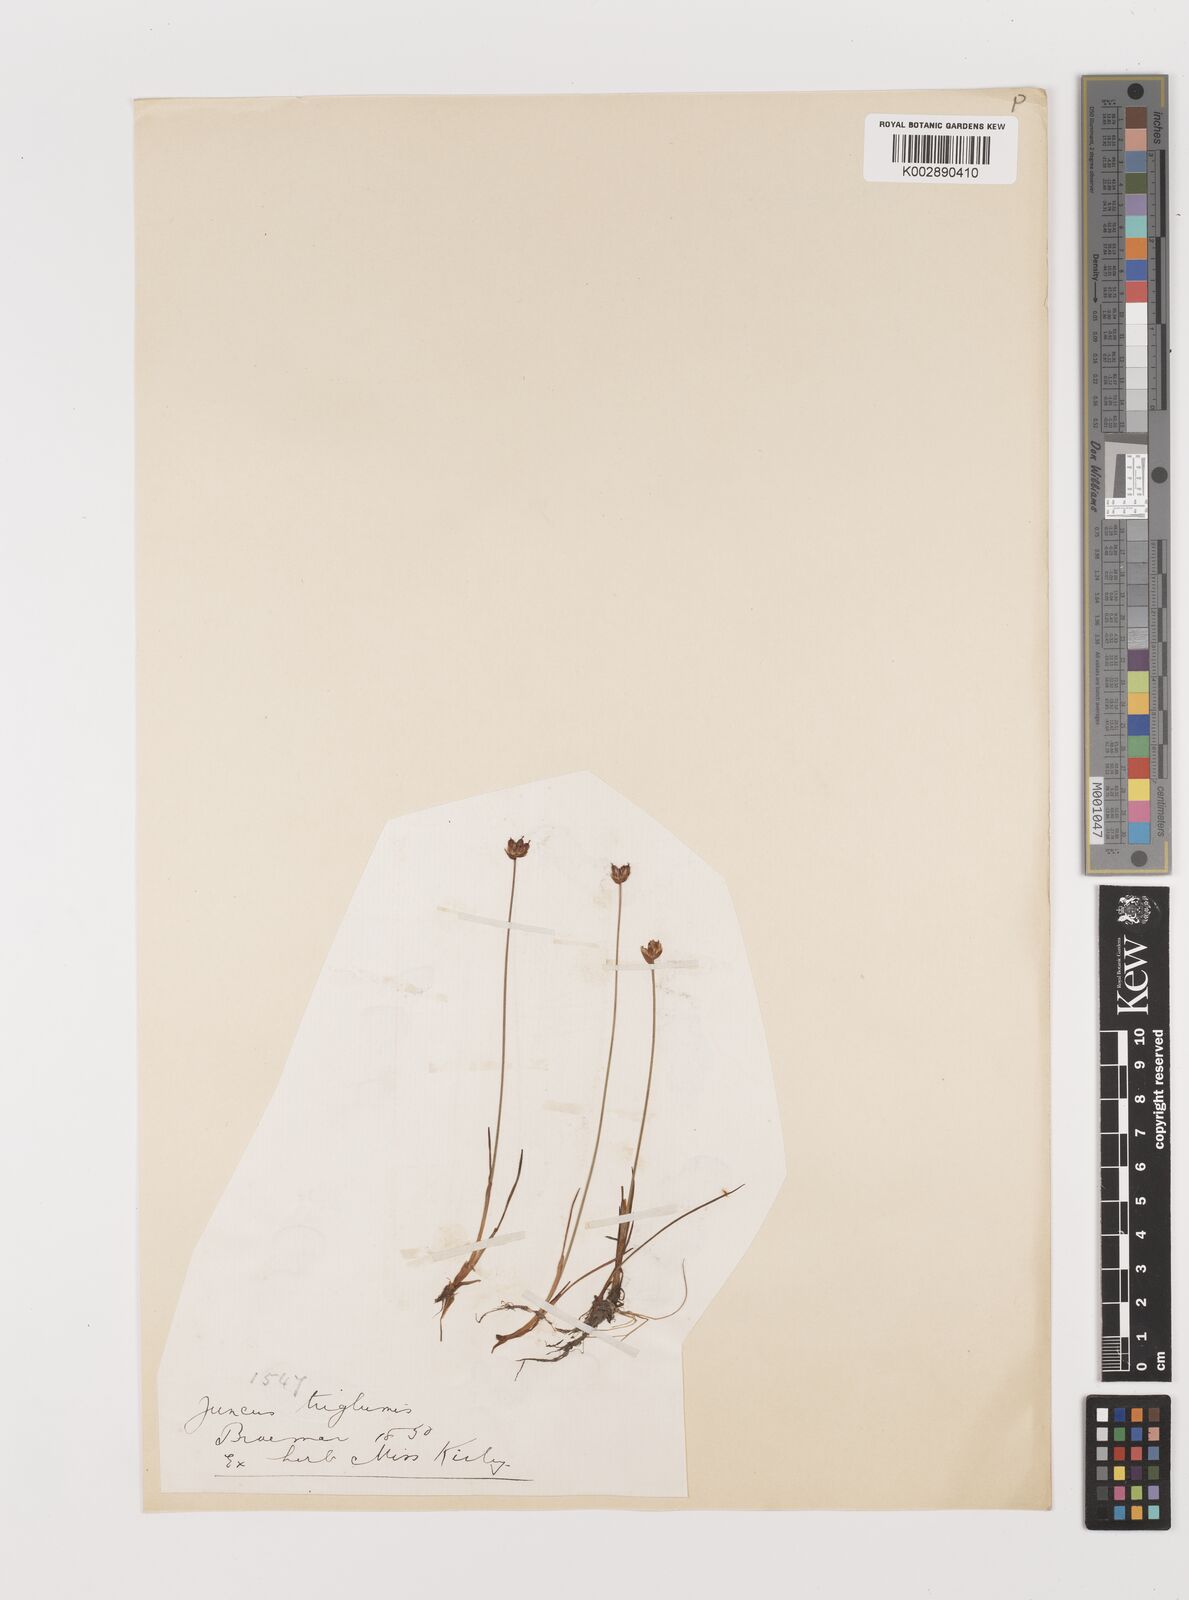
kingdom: Plantae
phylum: Tracheophyta
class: Liliopsida
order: Poales
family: Juncaceae
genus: Juncus
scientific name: Juncus triglumis
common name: Three-flowered rush
